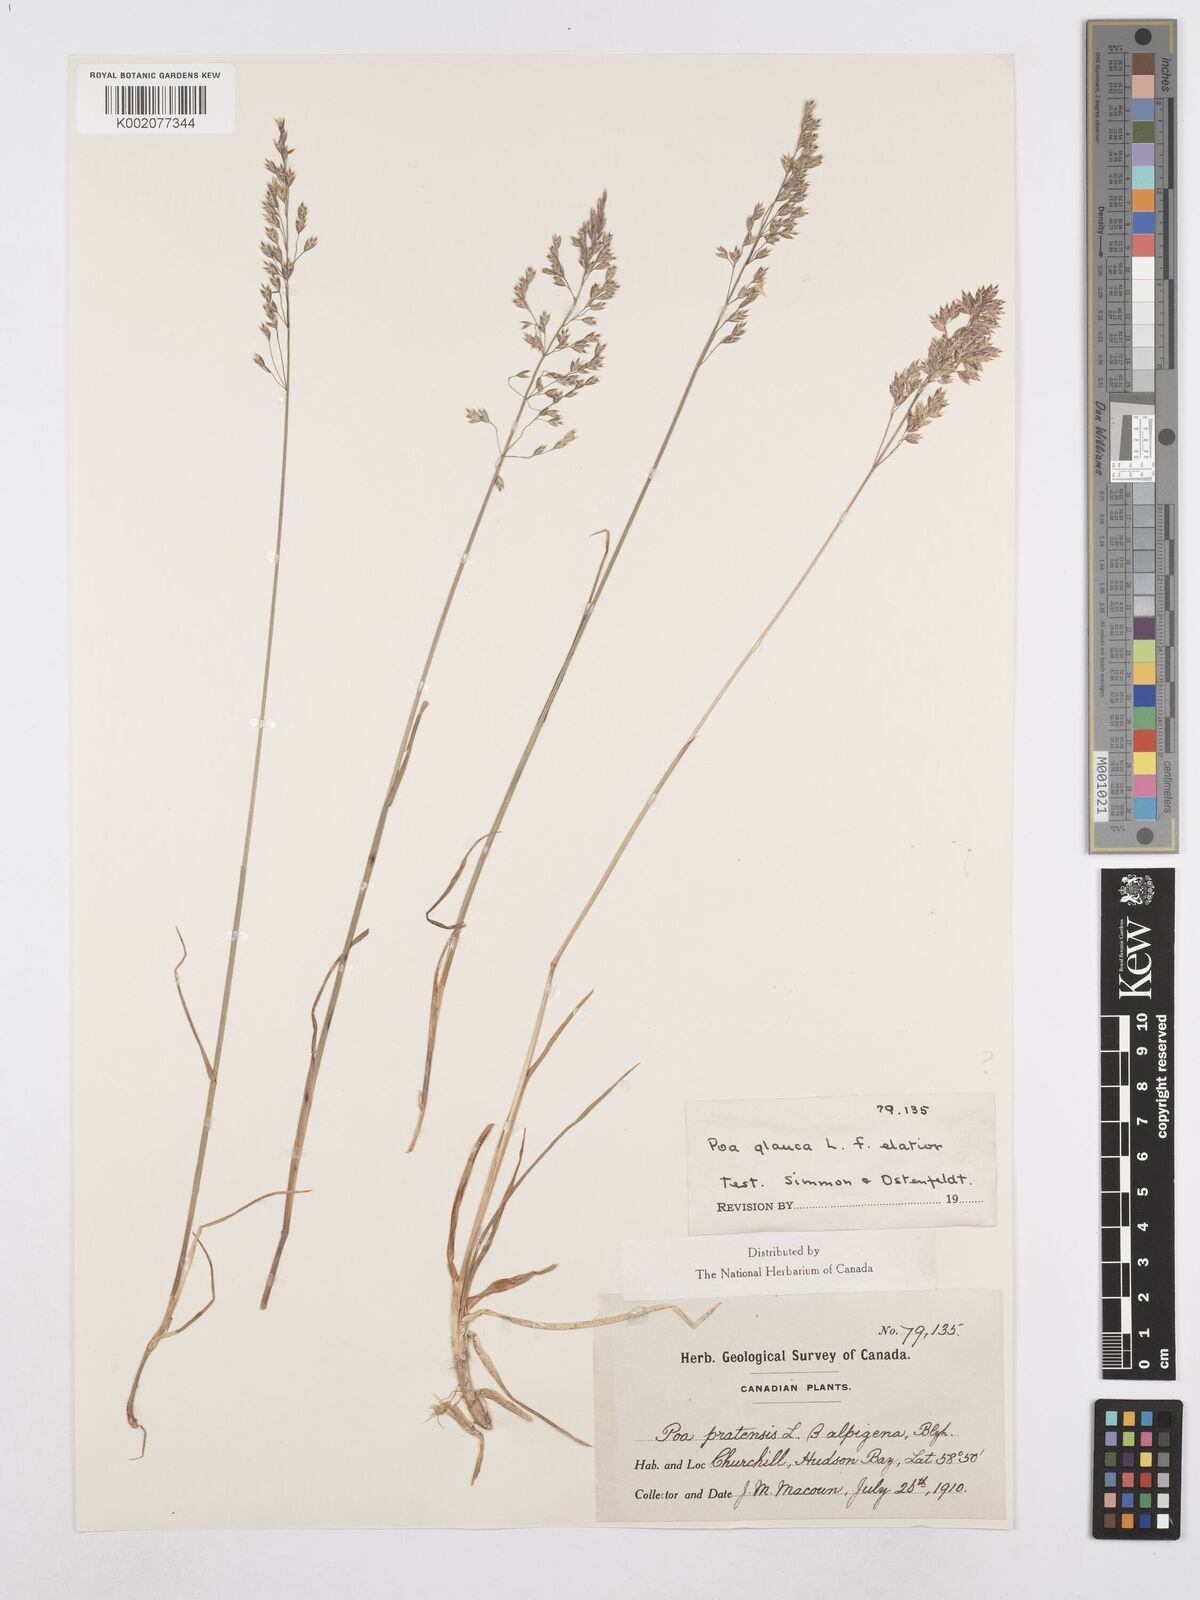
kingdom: Plantae
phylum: Tracheophyta
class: Liliopsida
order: Poales
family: Poaceae
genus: Poa
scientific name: Poa glauca
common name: Glaucous bluegrass
